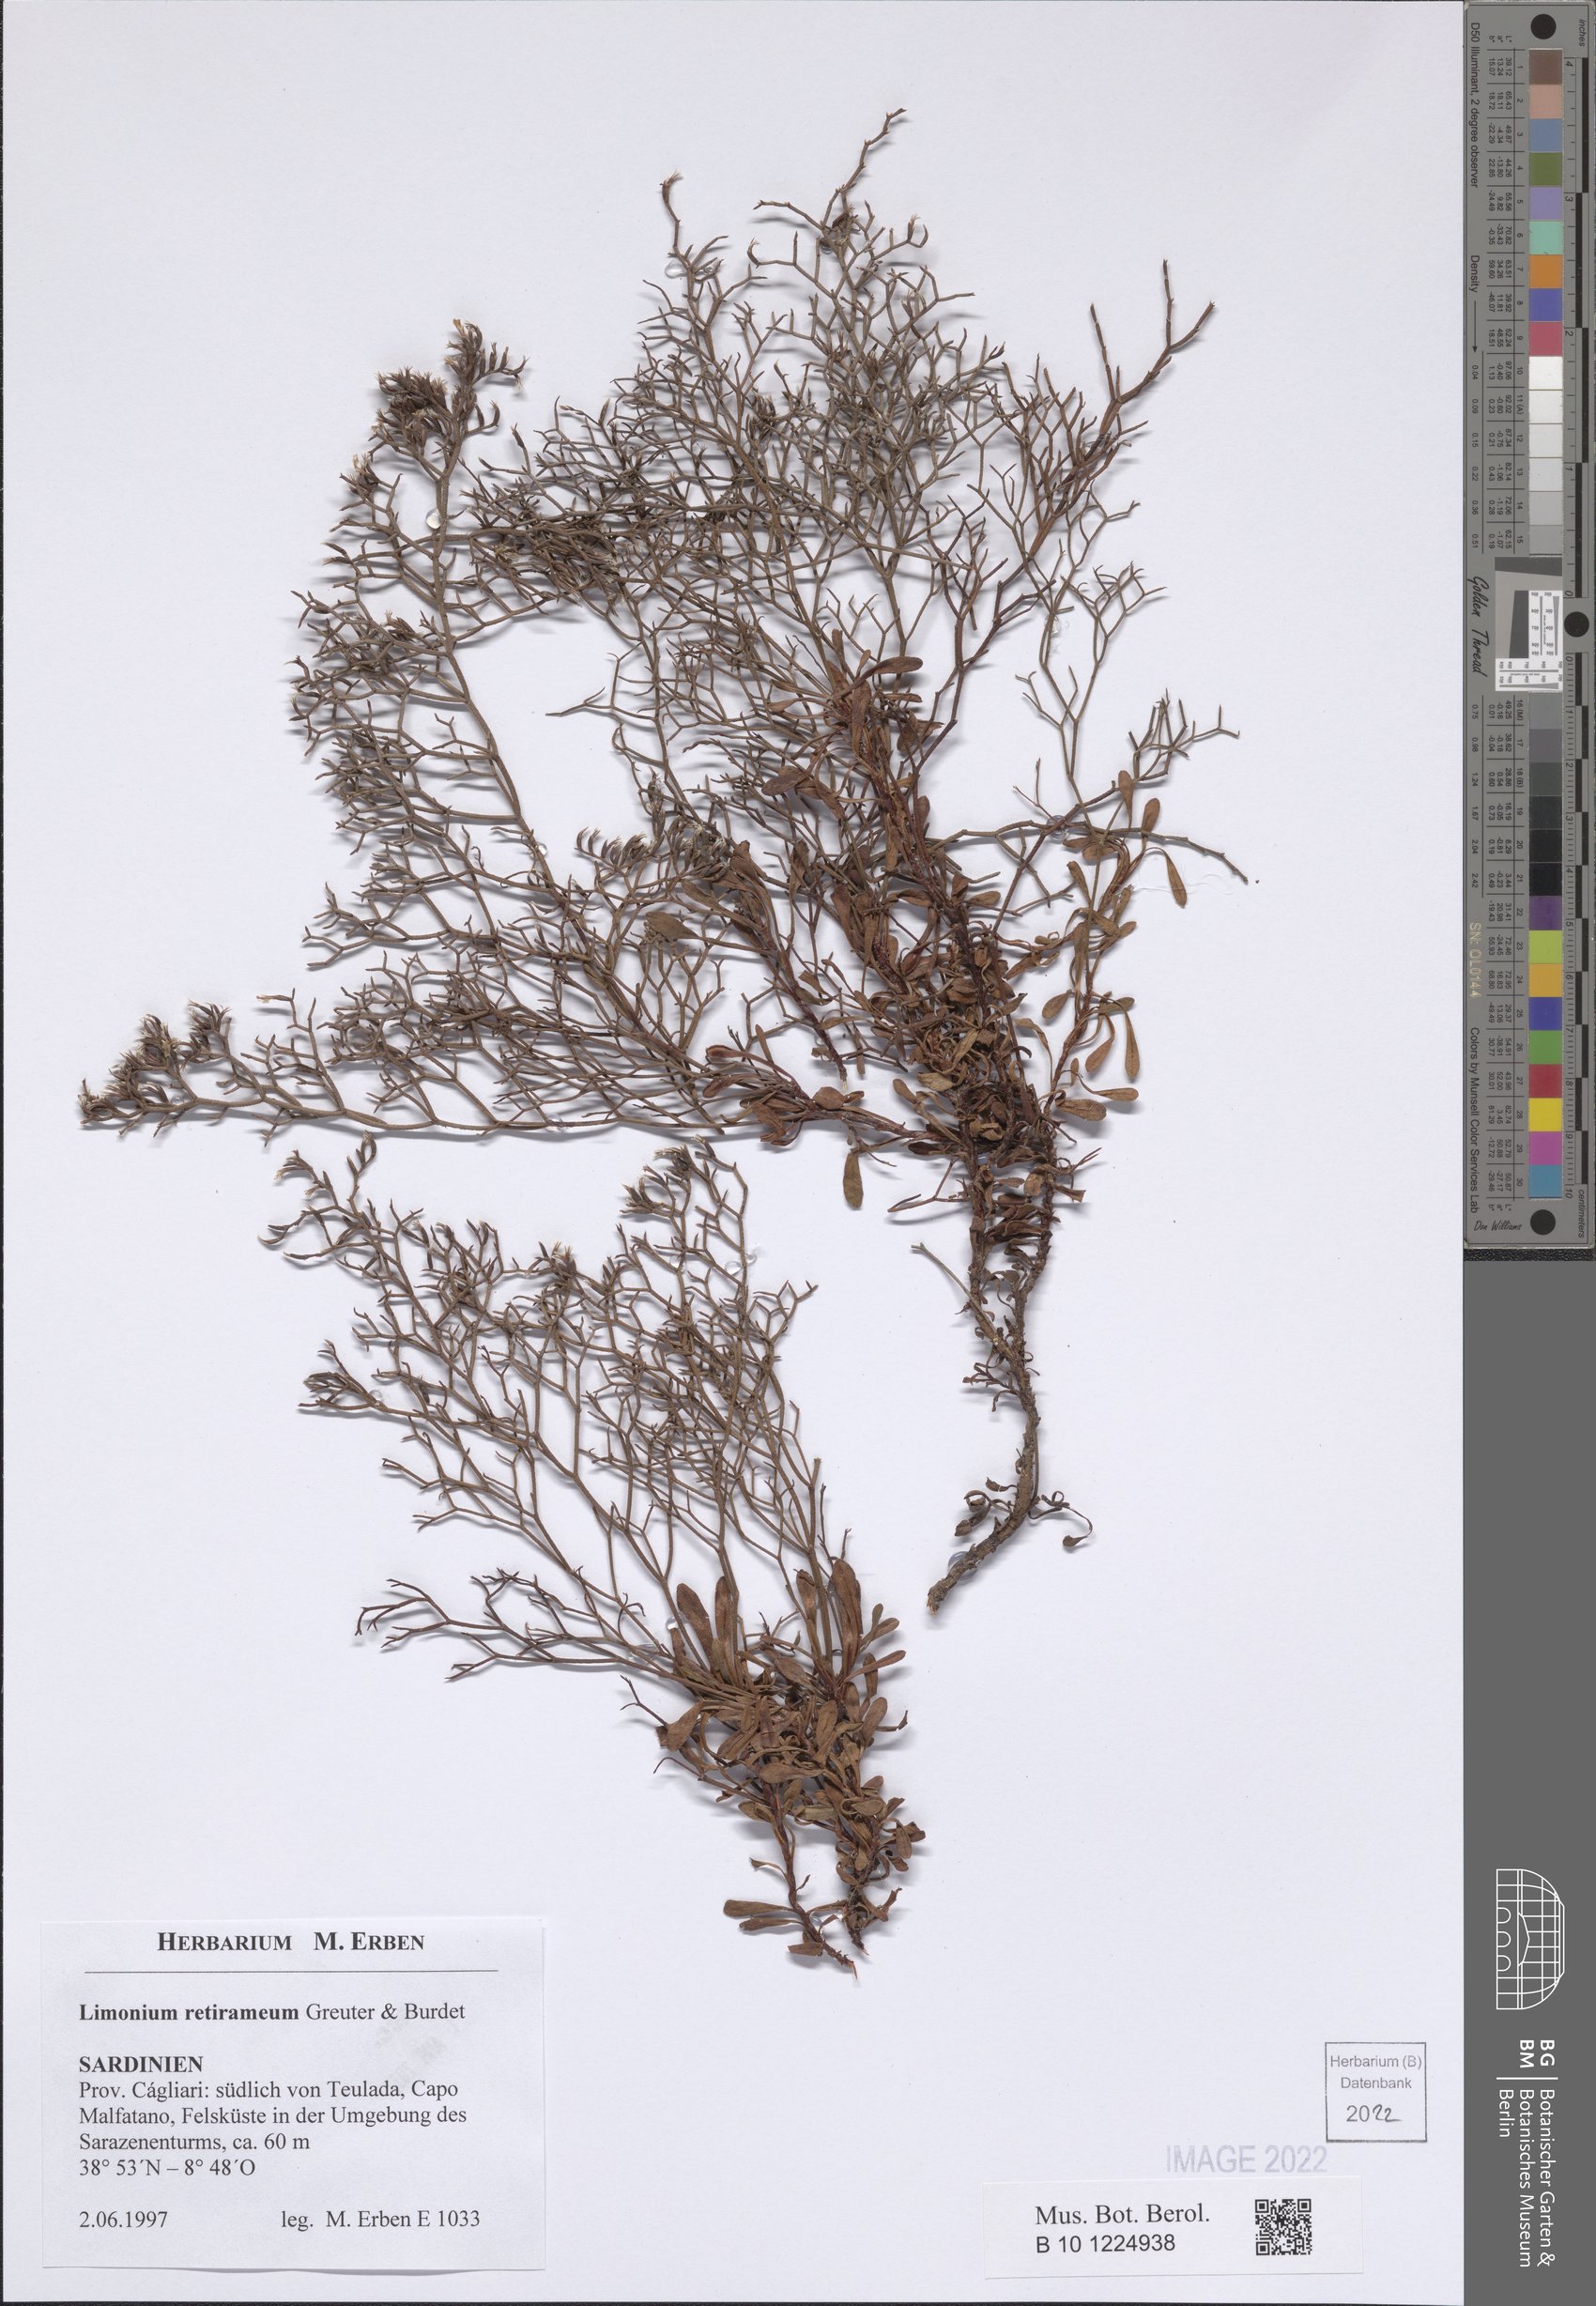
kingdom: Plantae
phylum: Tracheophyta
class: Magnoliopsida
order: Caryophyllales
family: Plumbaginaceae
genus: Limonium
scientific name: Limonium retirameum
